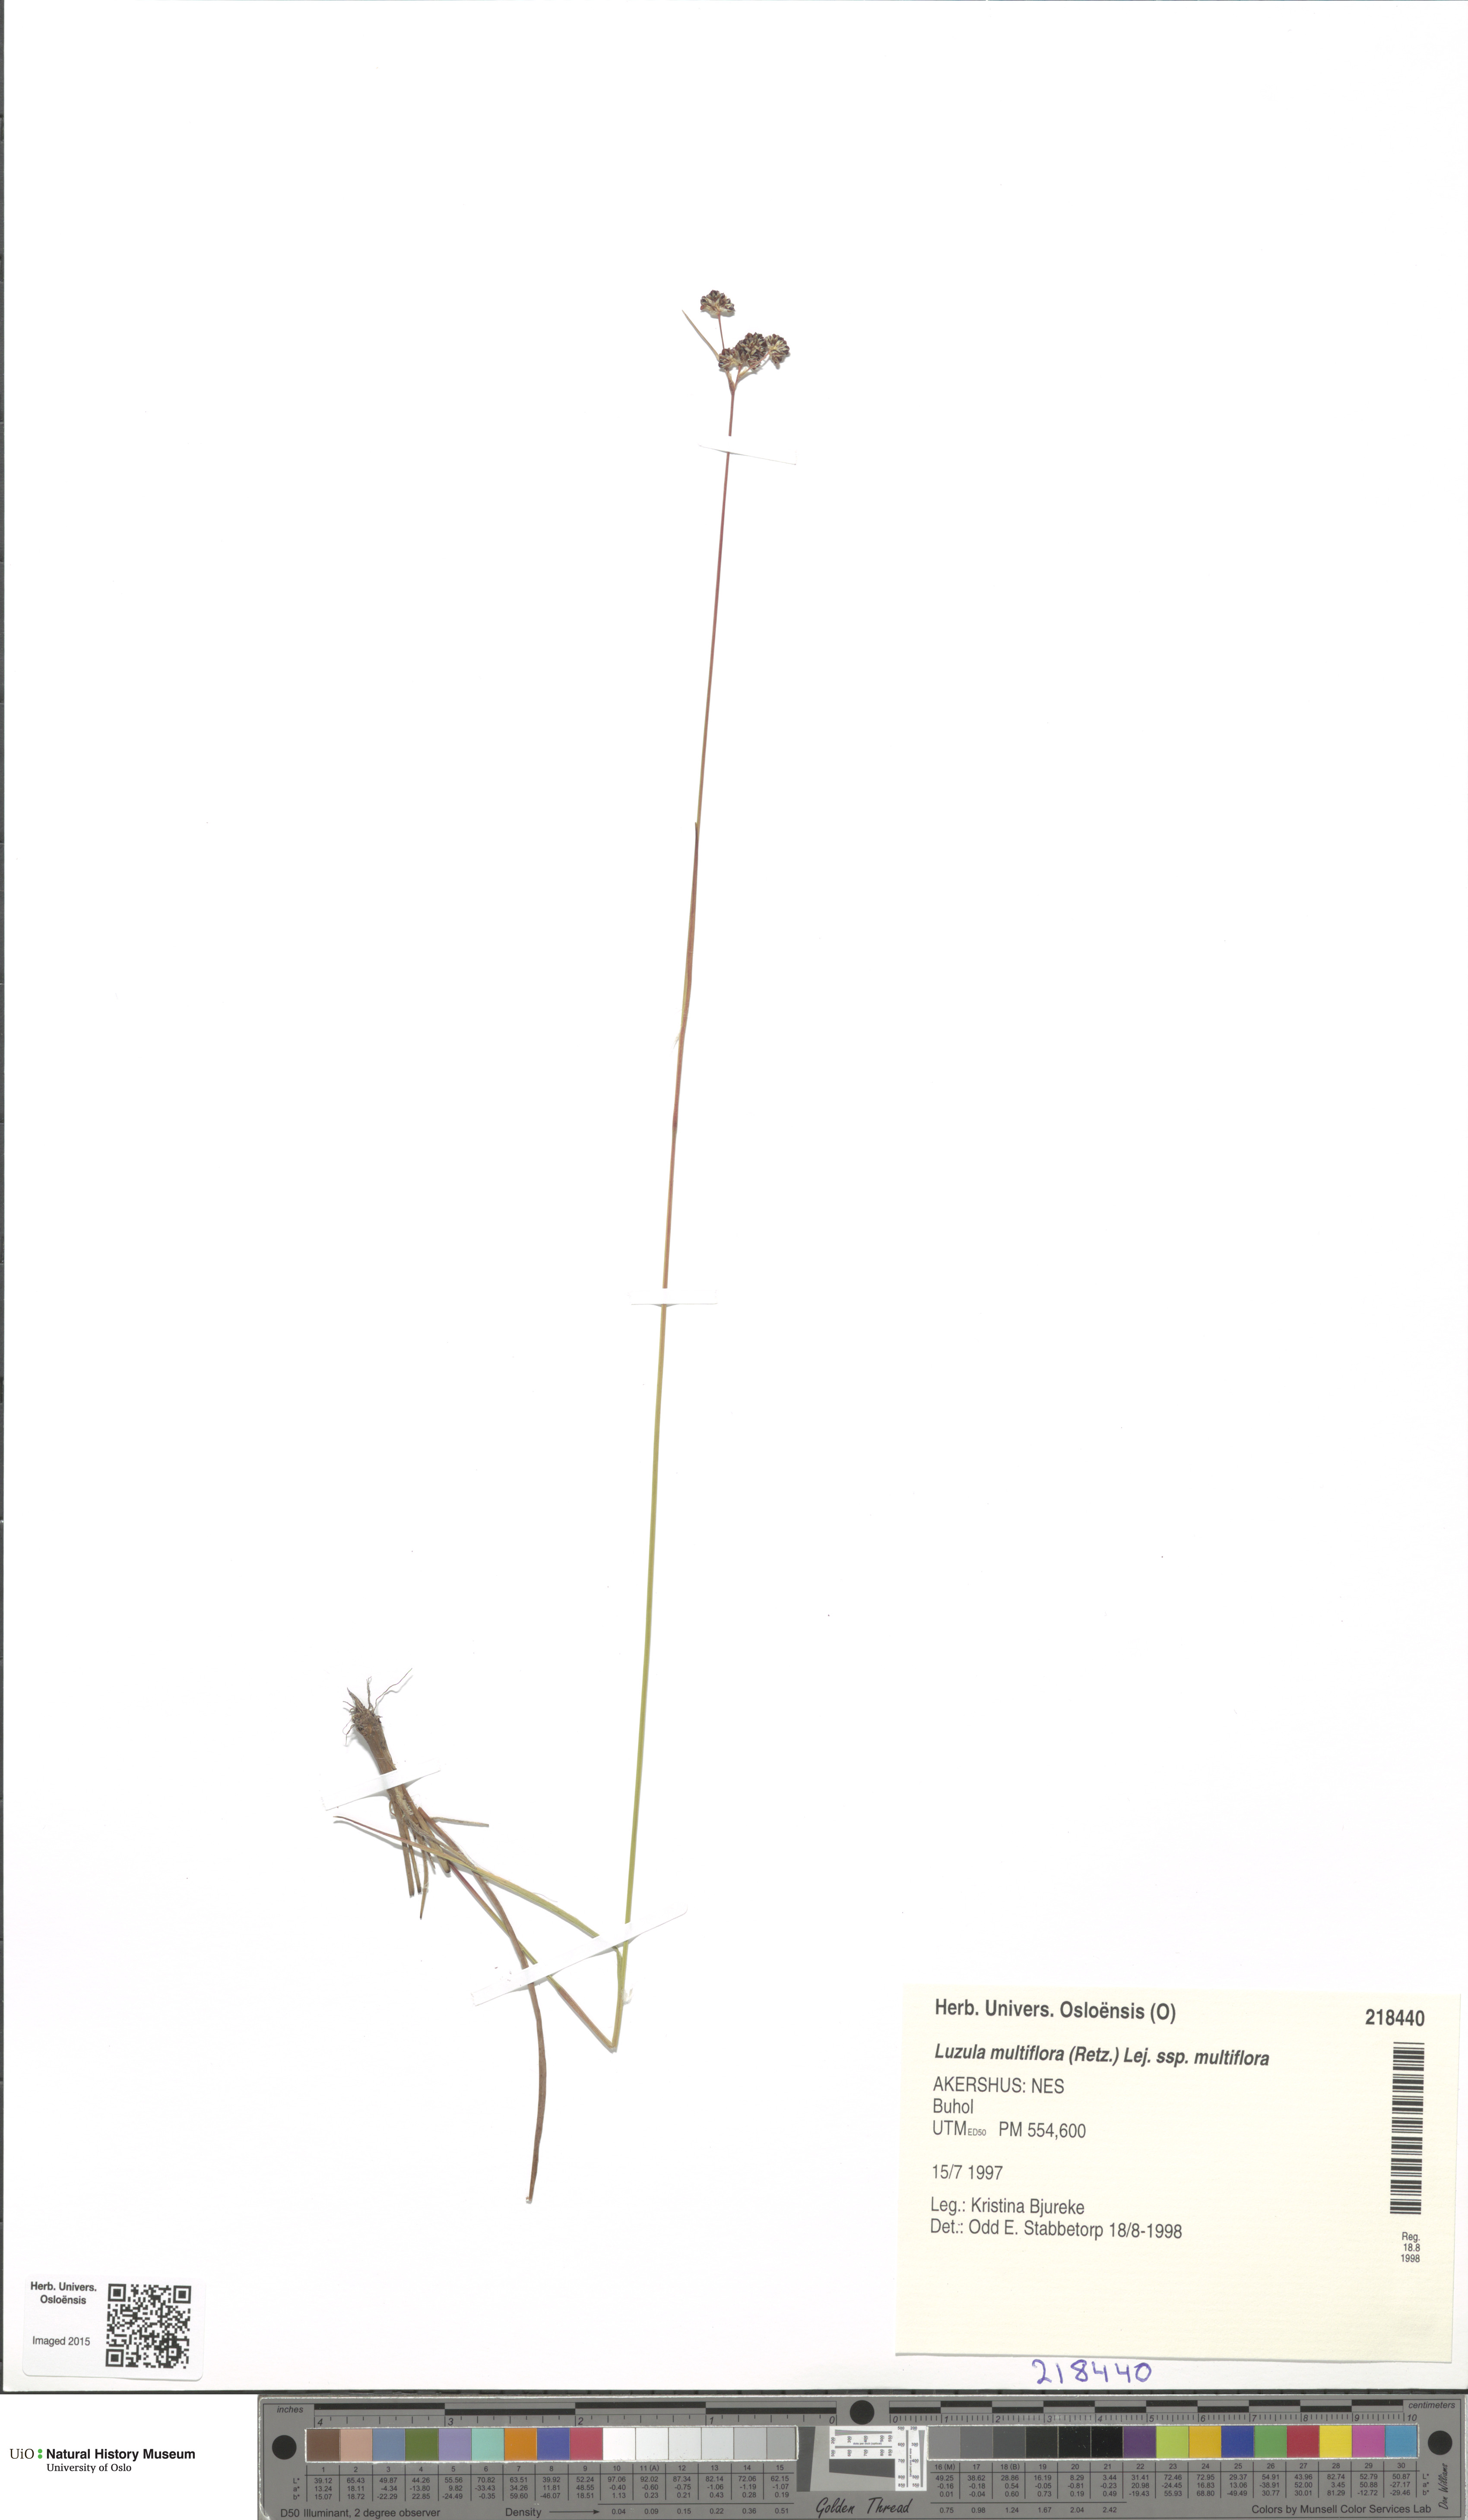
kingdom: Plantae
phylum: Tracheophyta
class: Liliopsida
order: Poales
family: Juncaceae
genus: Luzula
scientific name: Luzula multiflora
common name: Heath wood-rush
